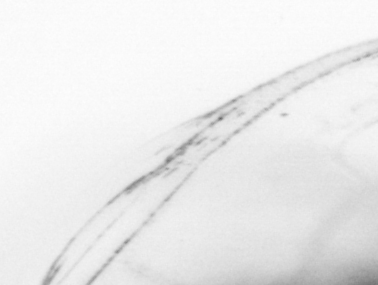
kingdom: Animalia
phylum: Chordata
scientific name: Chordata
